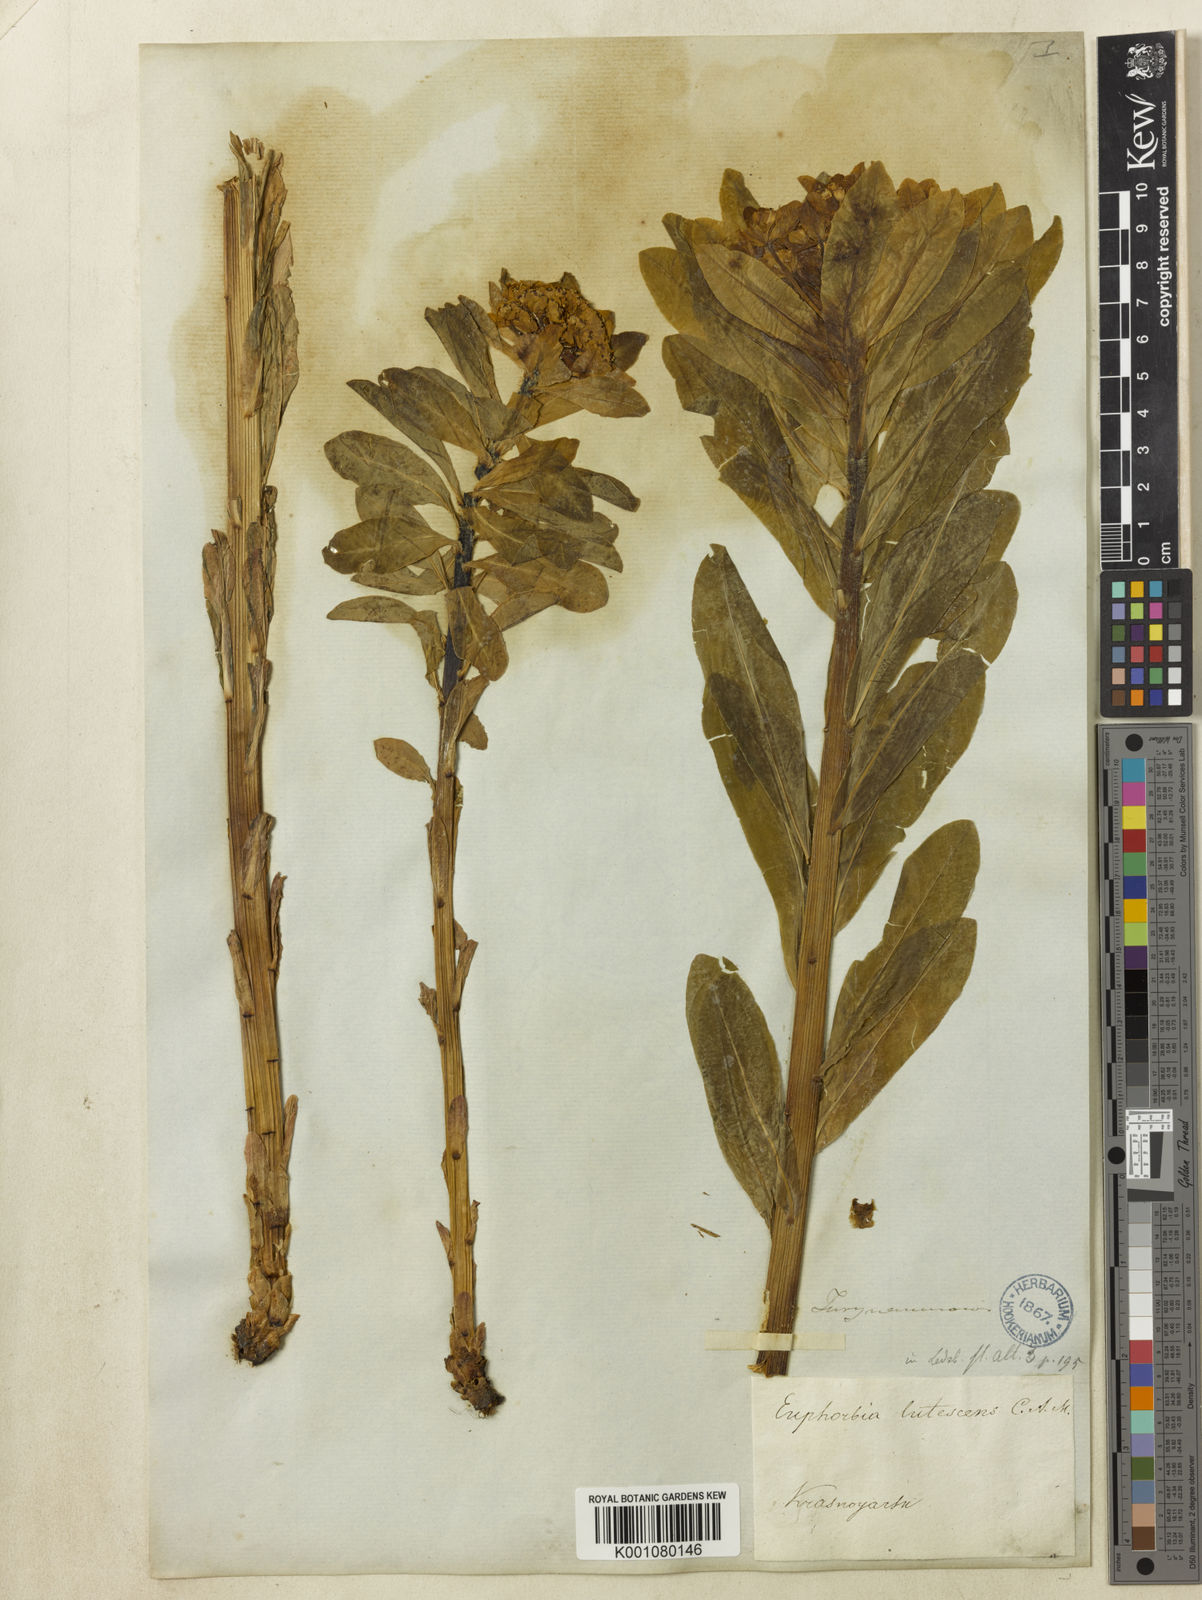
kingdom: Plantae
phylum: Tracheophyta
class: Magnoliopsida
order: Malpighiales
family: Euphorbiaceae
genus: Euphorbia
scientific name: Euphorbia
